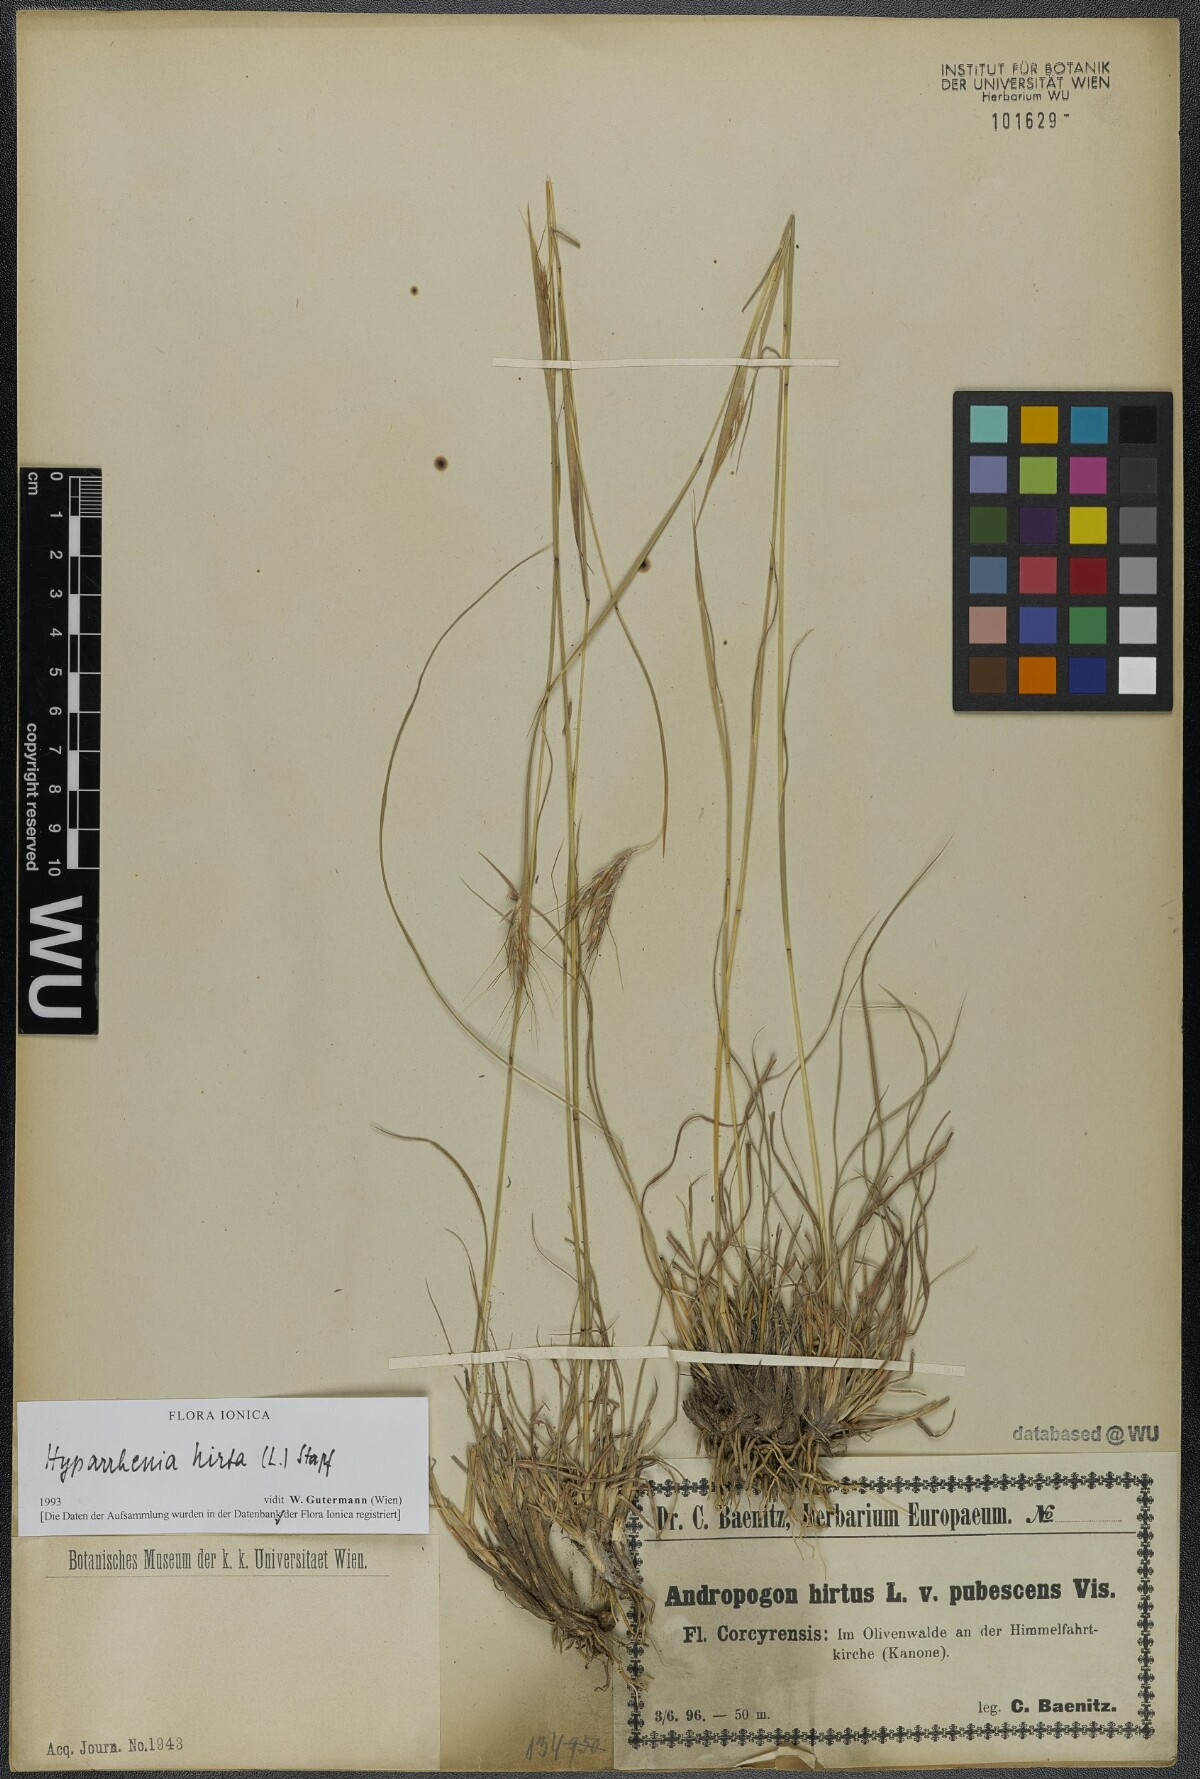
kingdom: Plantae
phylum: Tracheophyta
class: Liliopsida
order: Poales
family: Poaceae
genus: Hyparrhenia
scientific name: Hyparrhenia hirta
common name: Thatching grass
